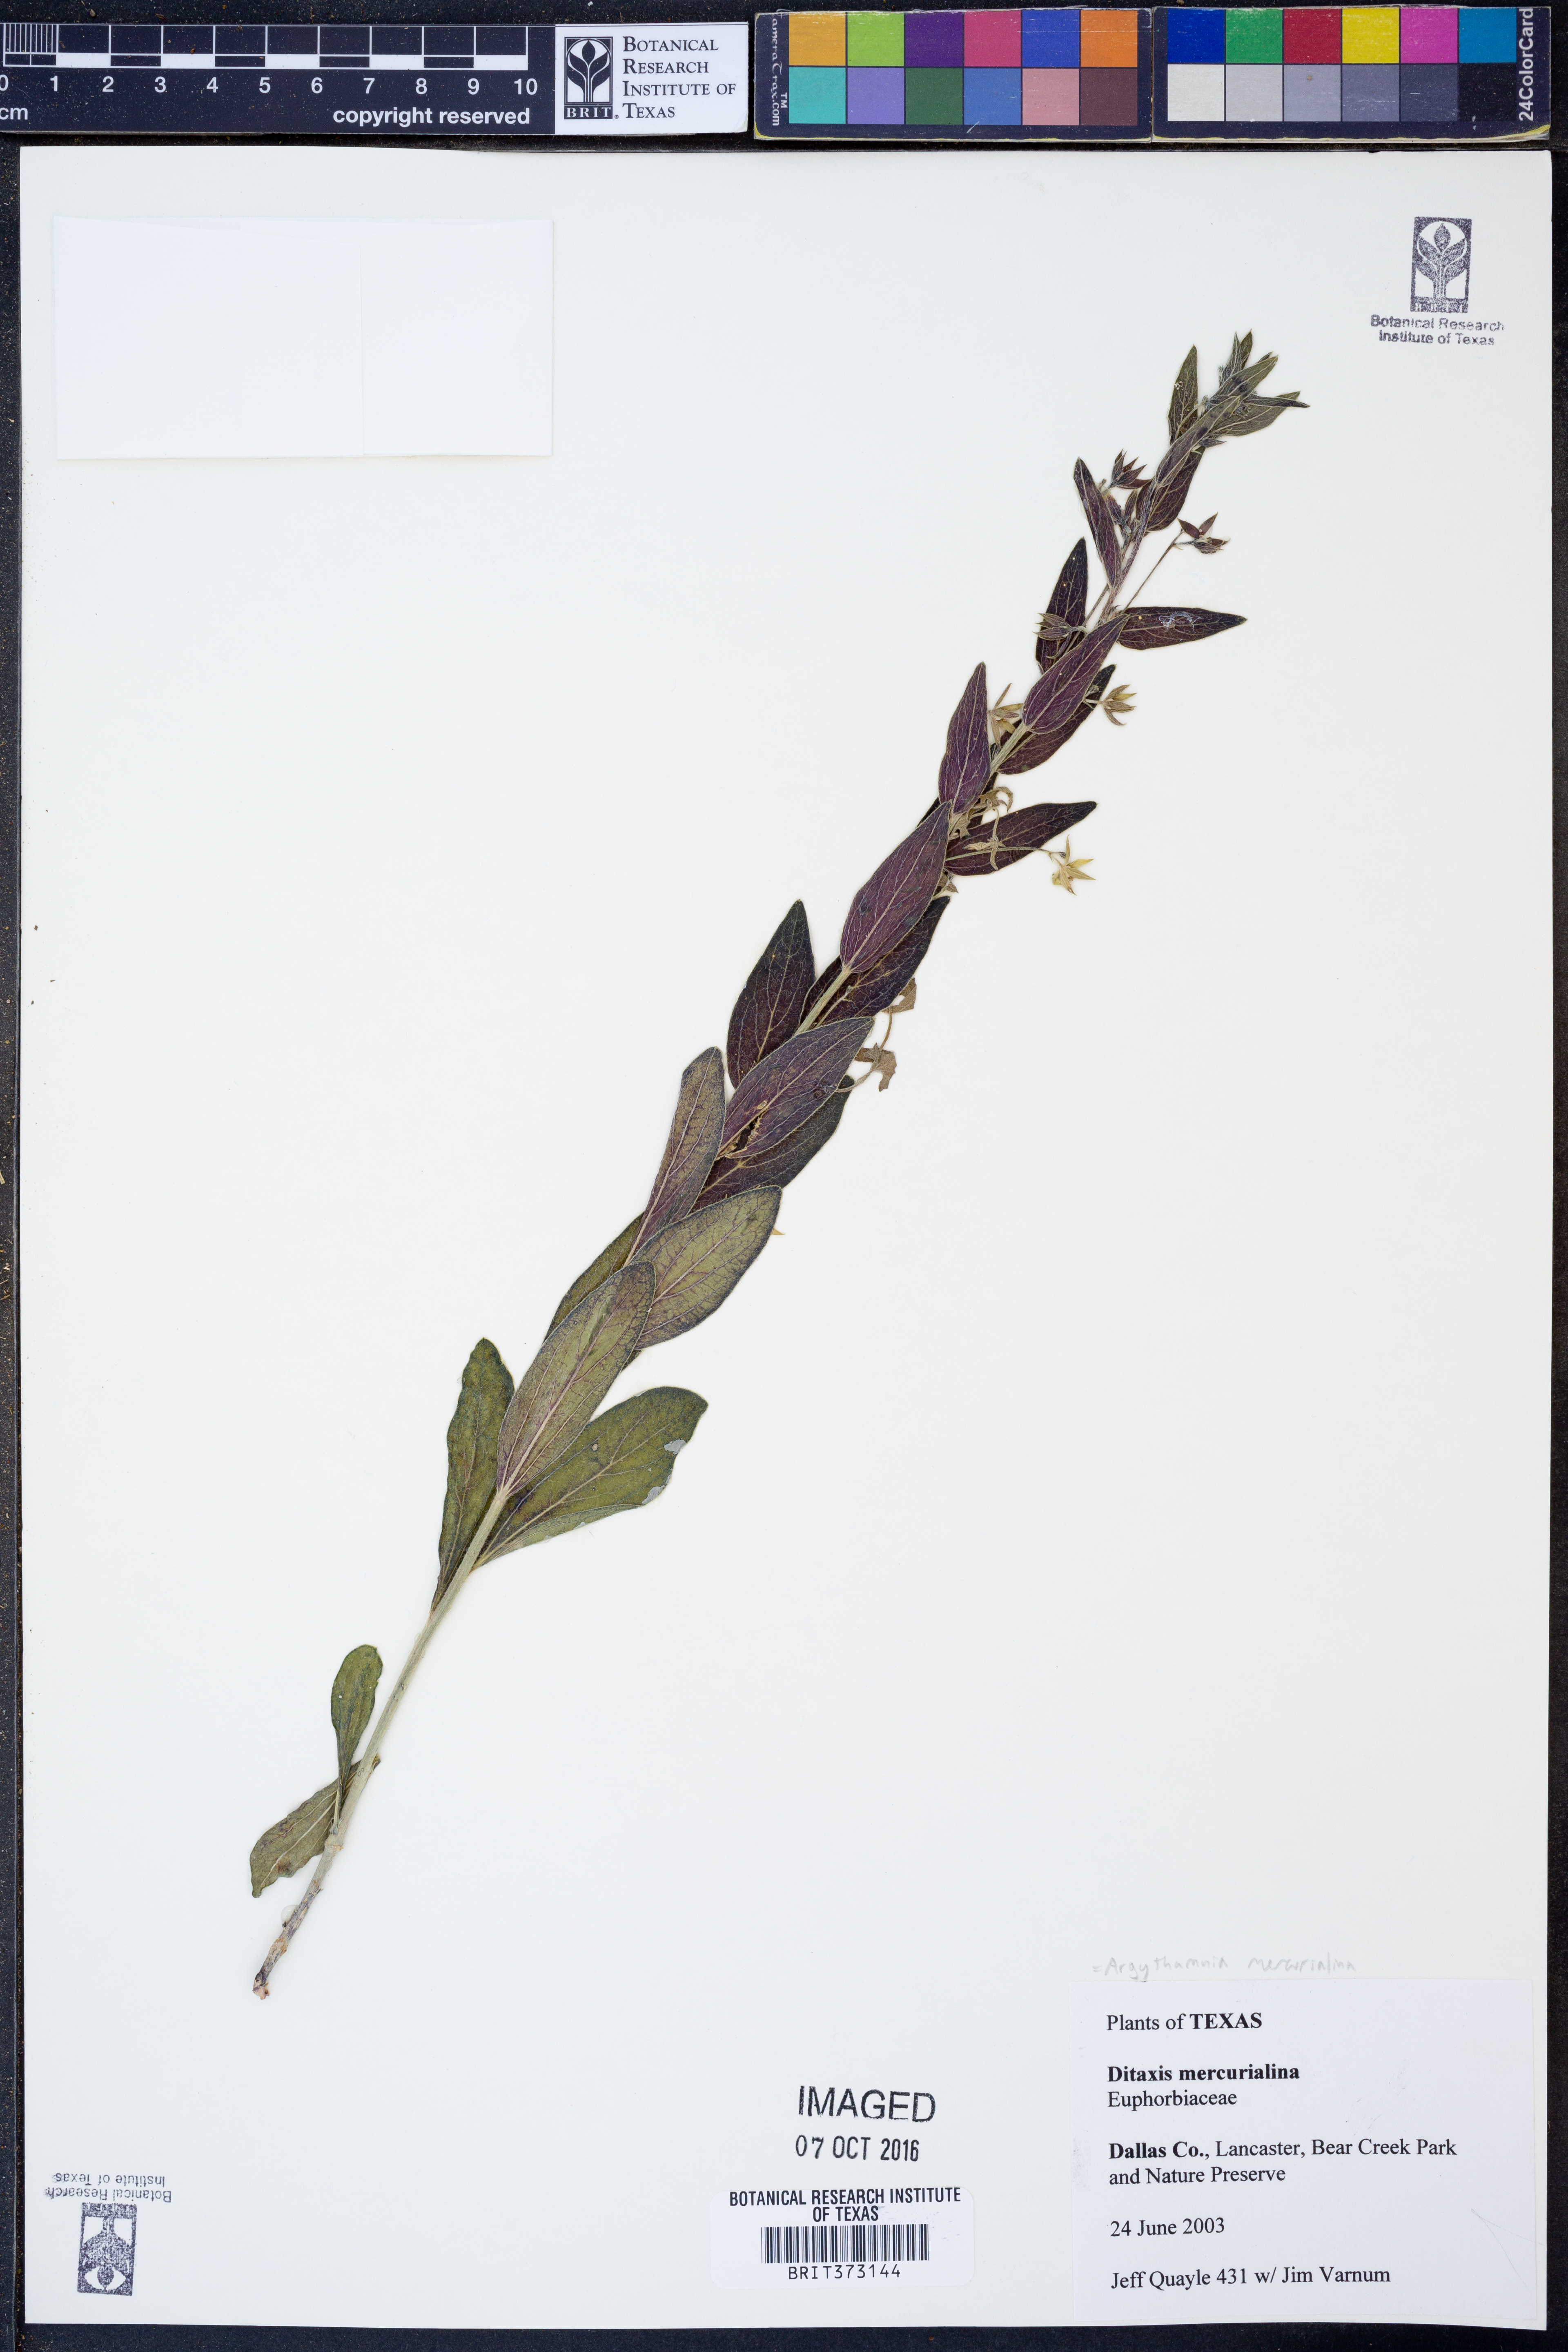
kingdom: Plantae
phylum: Tracheophyta
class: Magnoliopsida
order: Malpighiales
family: Euphorbiaceae
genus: Ditaxis
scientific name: Ditaxis mercurialina
